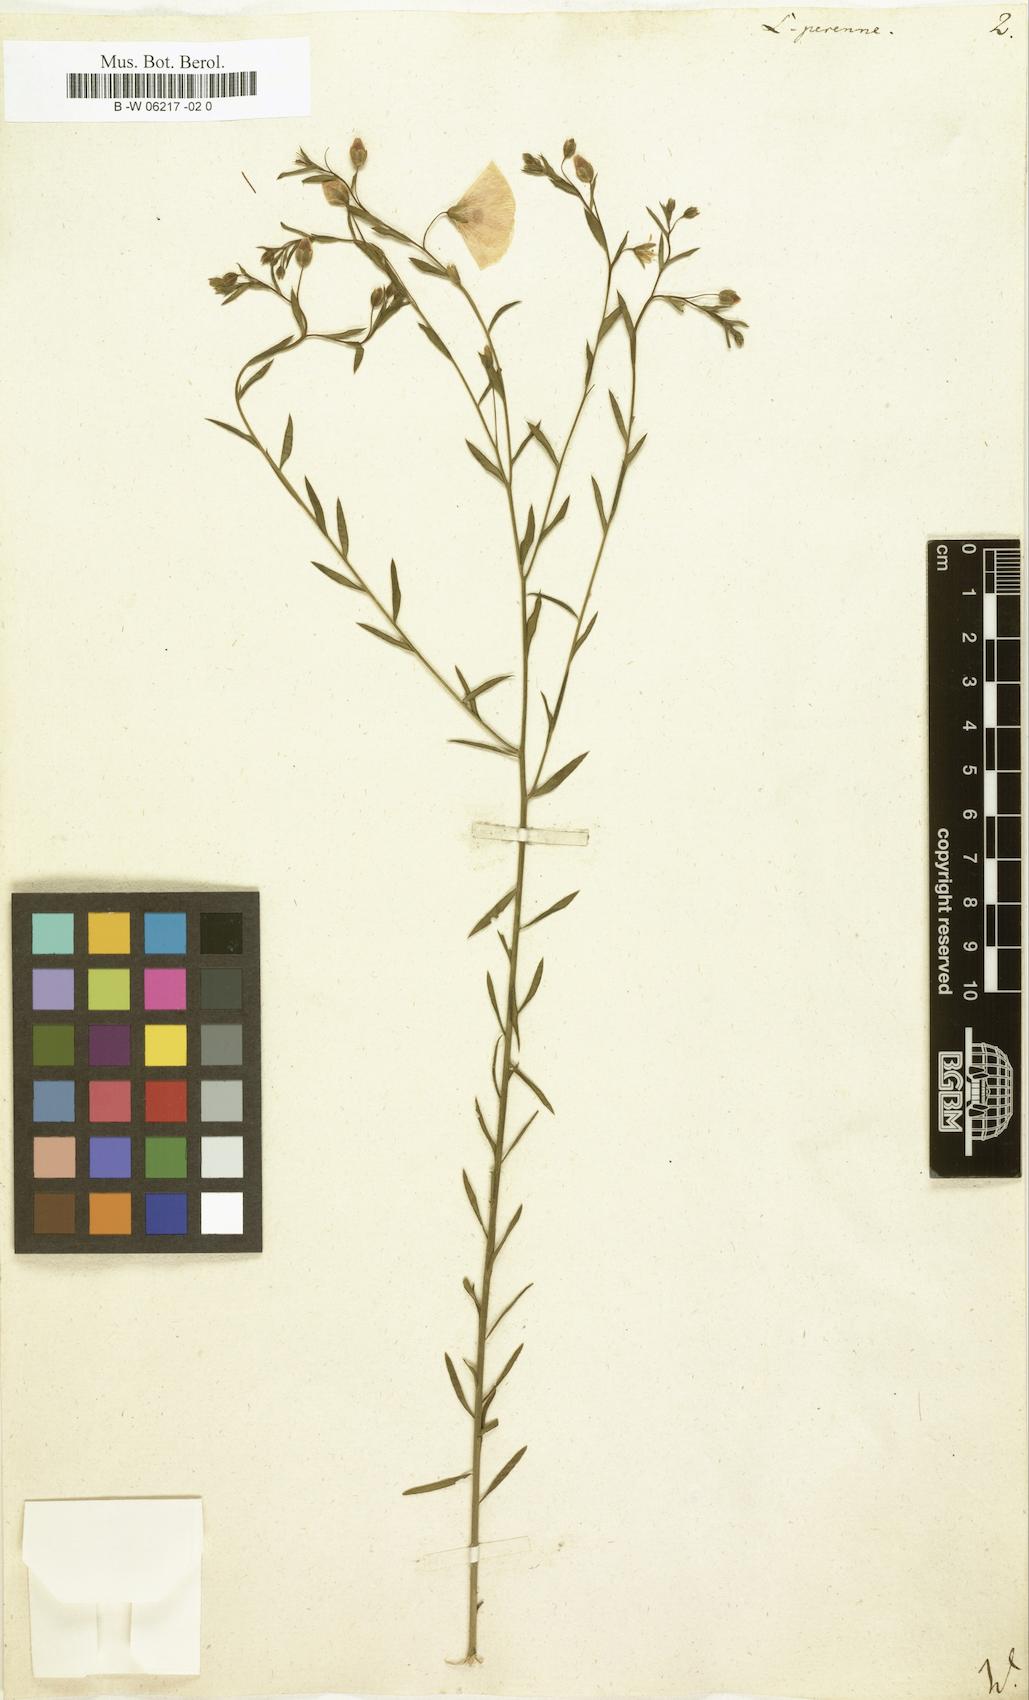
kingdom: Plantae
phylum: Tracheophyta
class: Magnoliopsida
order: Malpighiales
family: Linaceae
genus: Linum
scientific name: Linum perenne
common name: Blue flax
